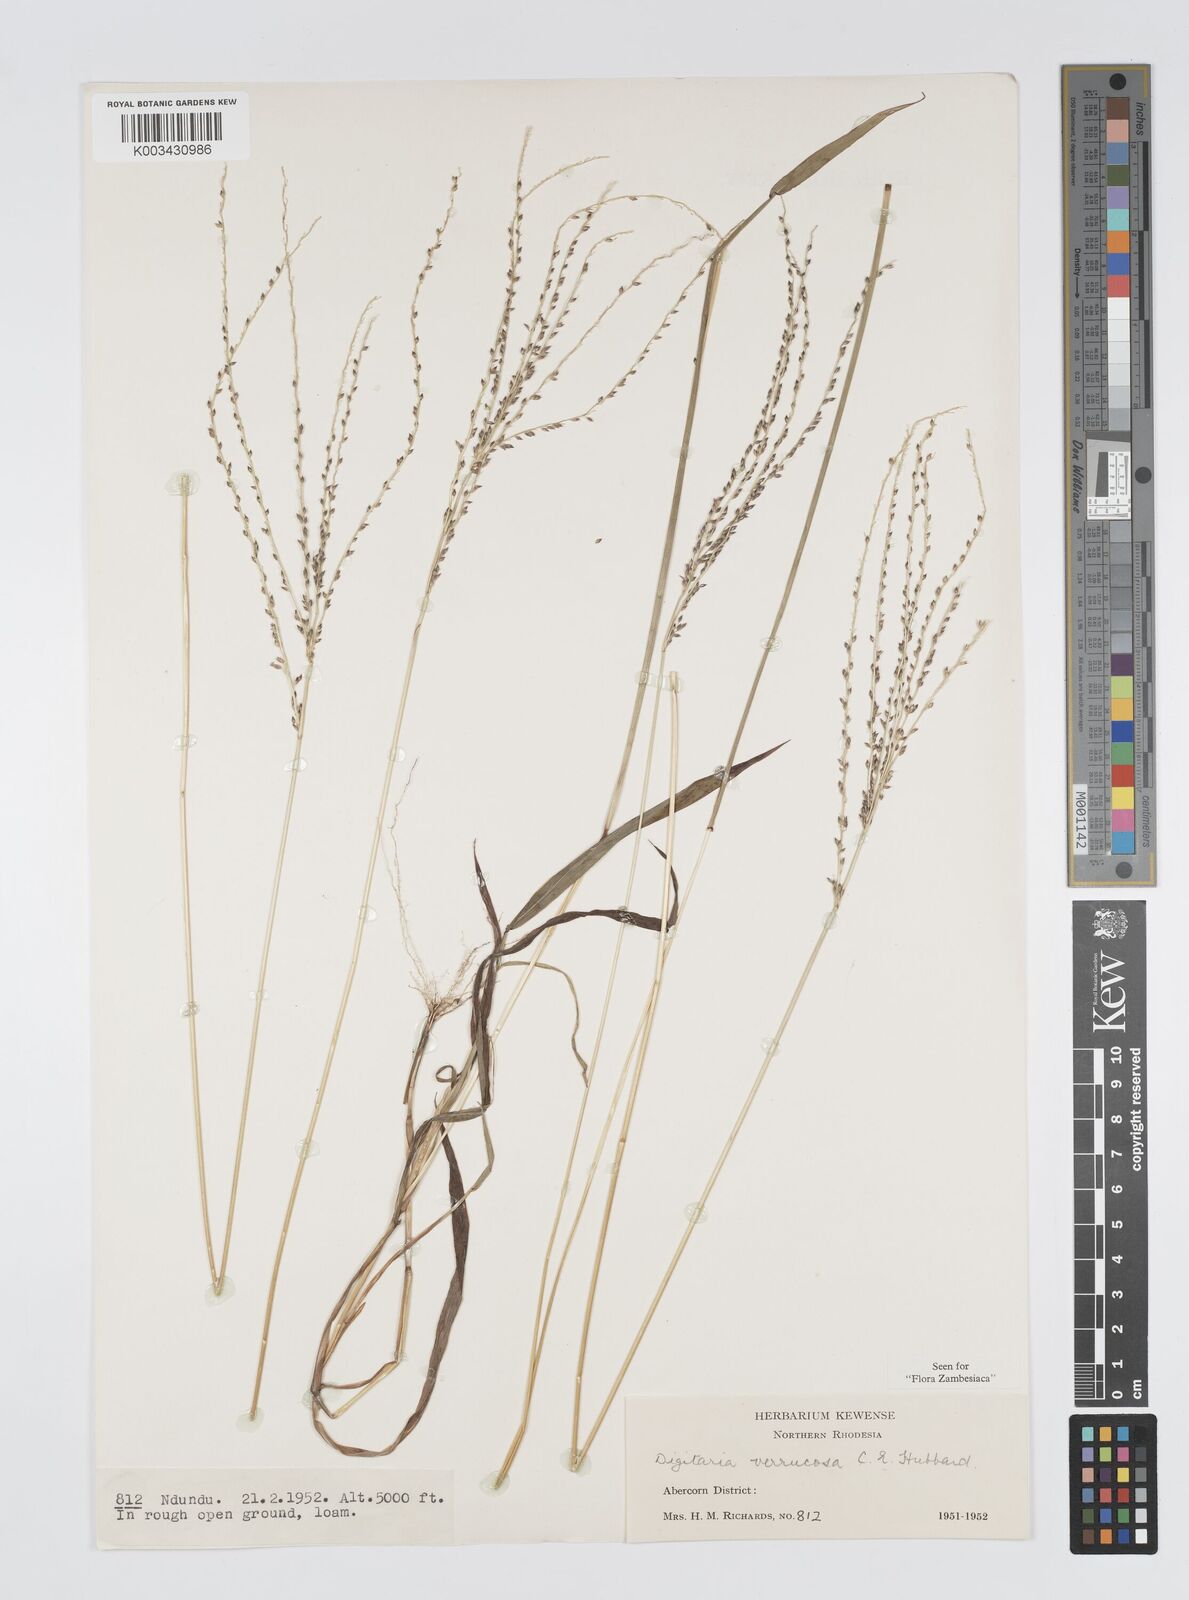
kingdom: Plantae
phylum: Tracheophyta
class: Liliopsida
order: Poales
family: Poaceae
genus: Digitaria
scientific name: Digitaria angolensis
